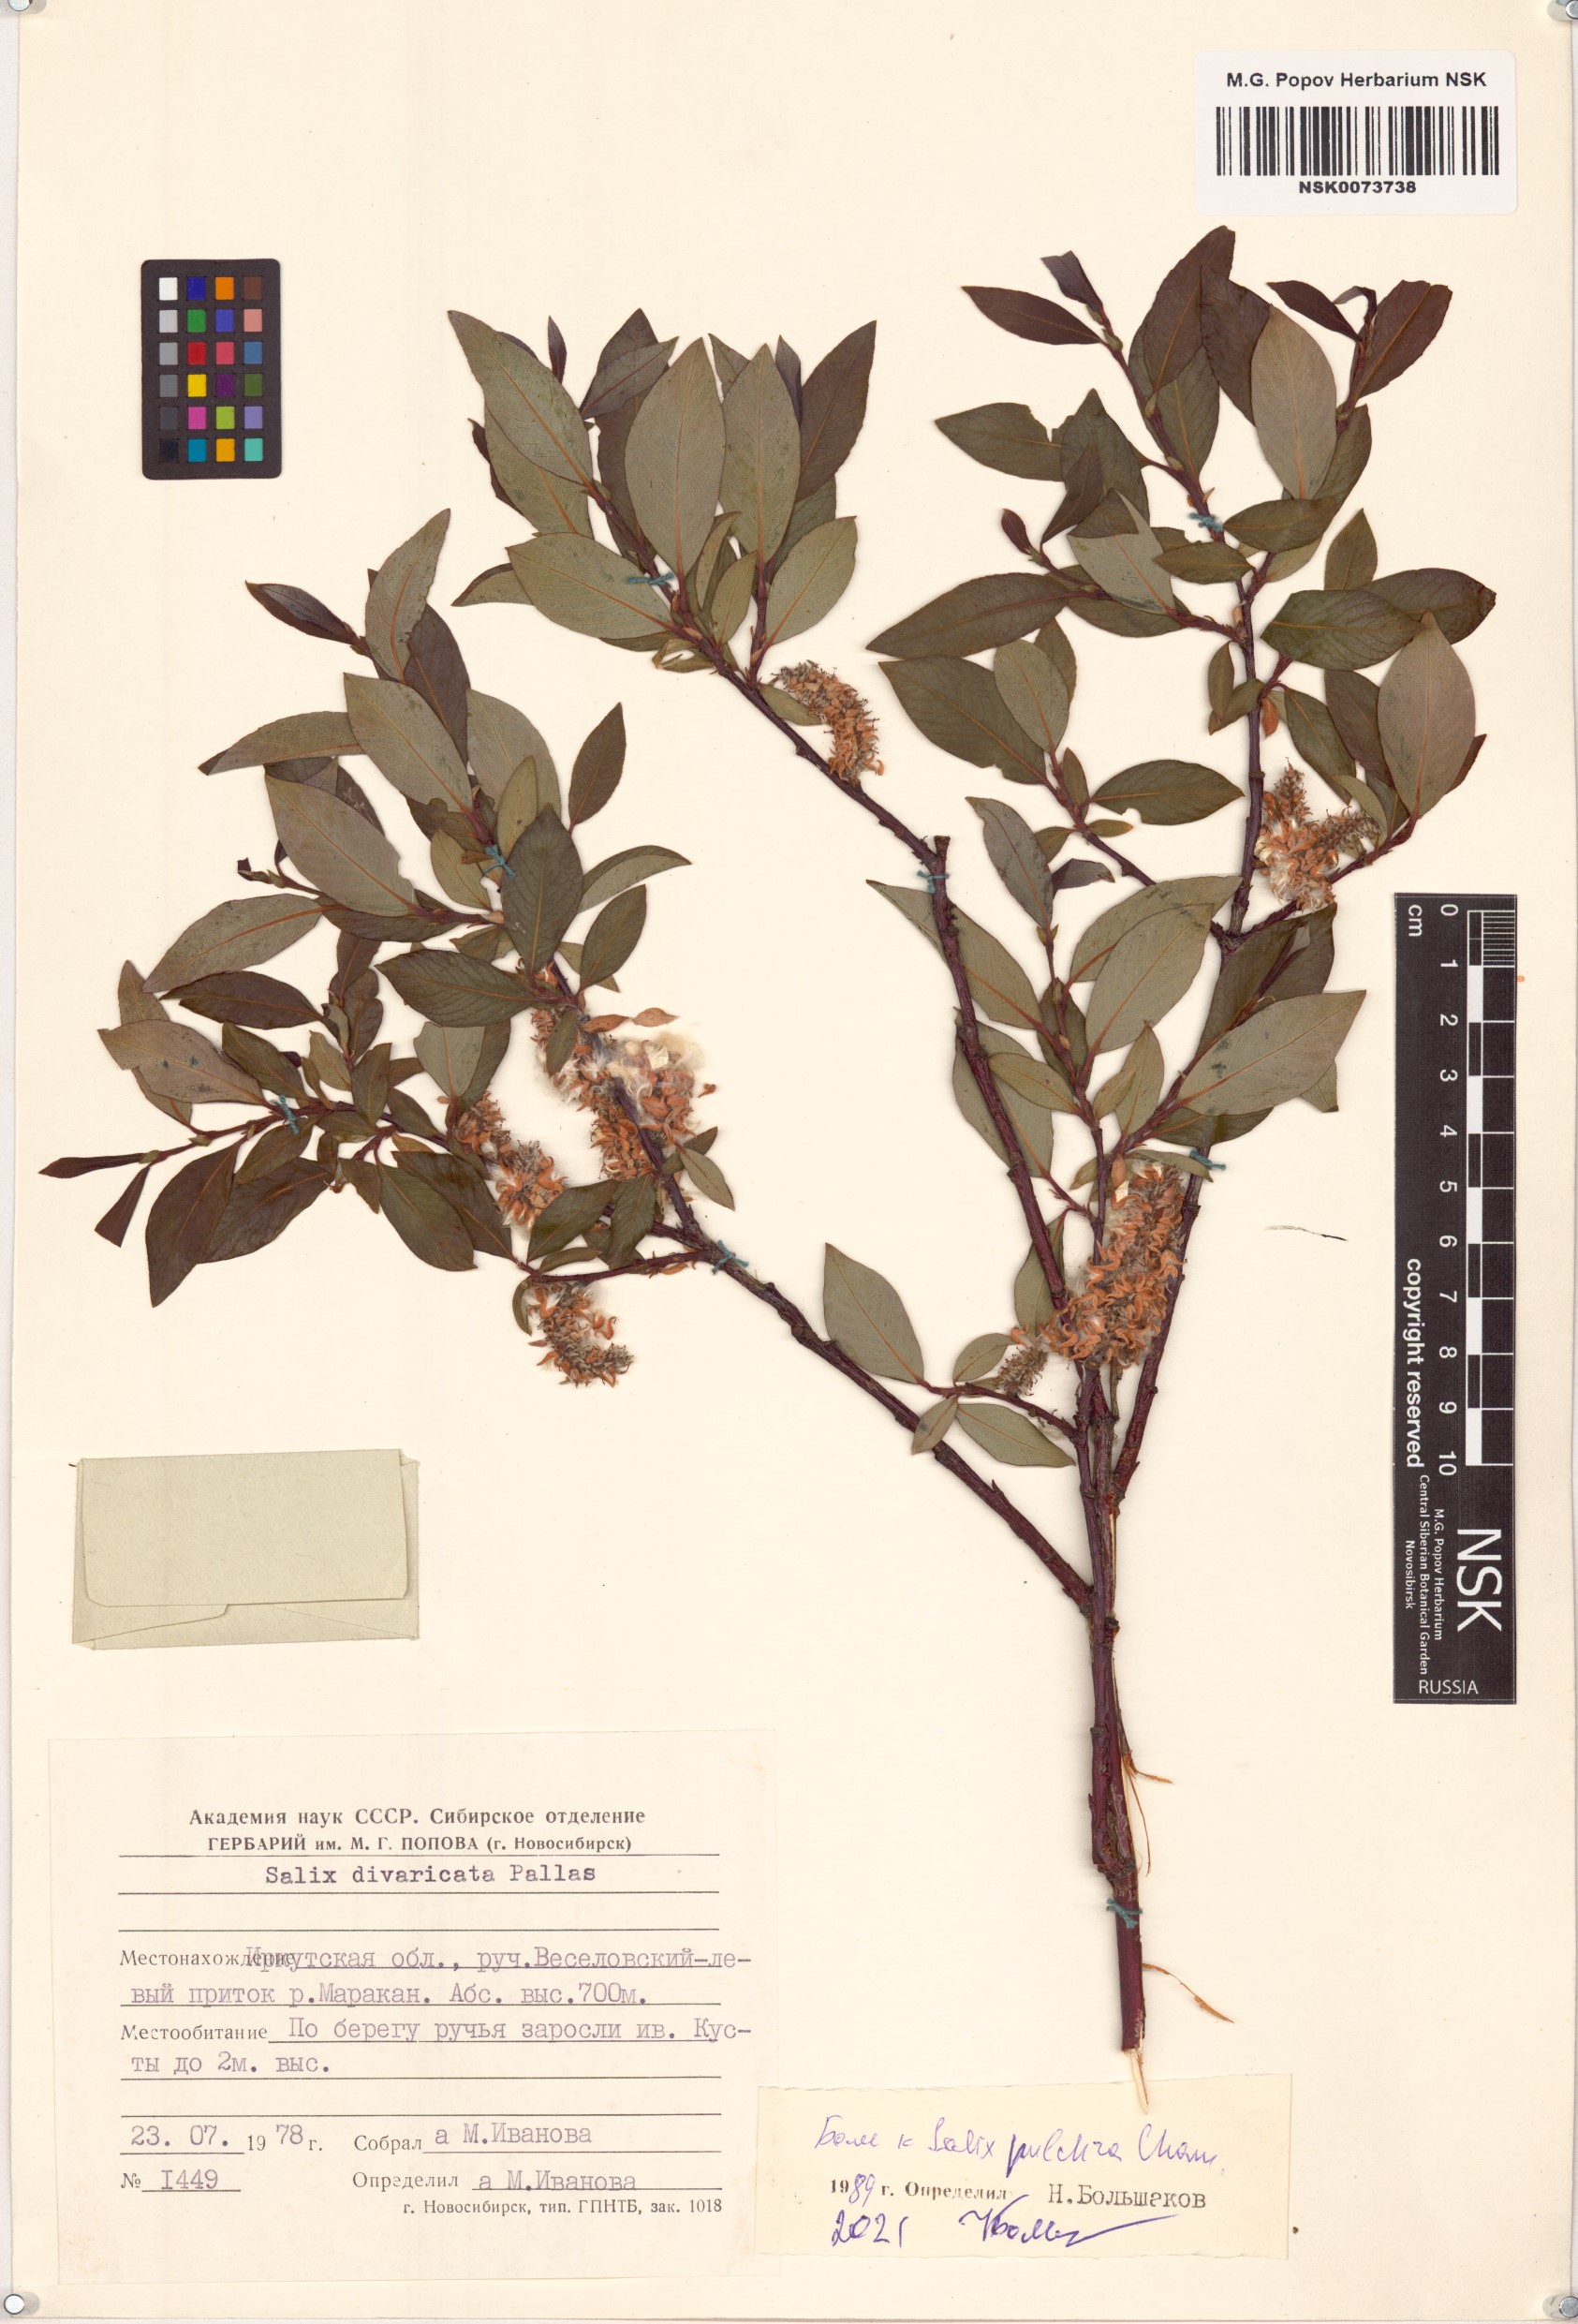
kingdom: Plantae
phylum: Tracheophyta
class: Magnoliopsida
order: Malpighiales
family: Salicaceae
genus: Salix
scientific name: Salix pulchra
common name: Diamond-leaved willow
